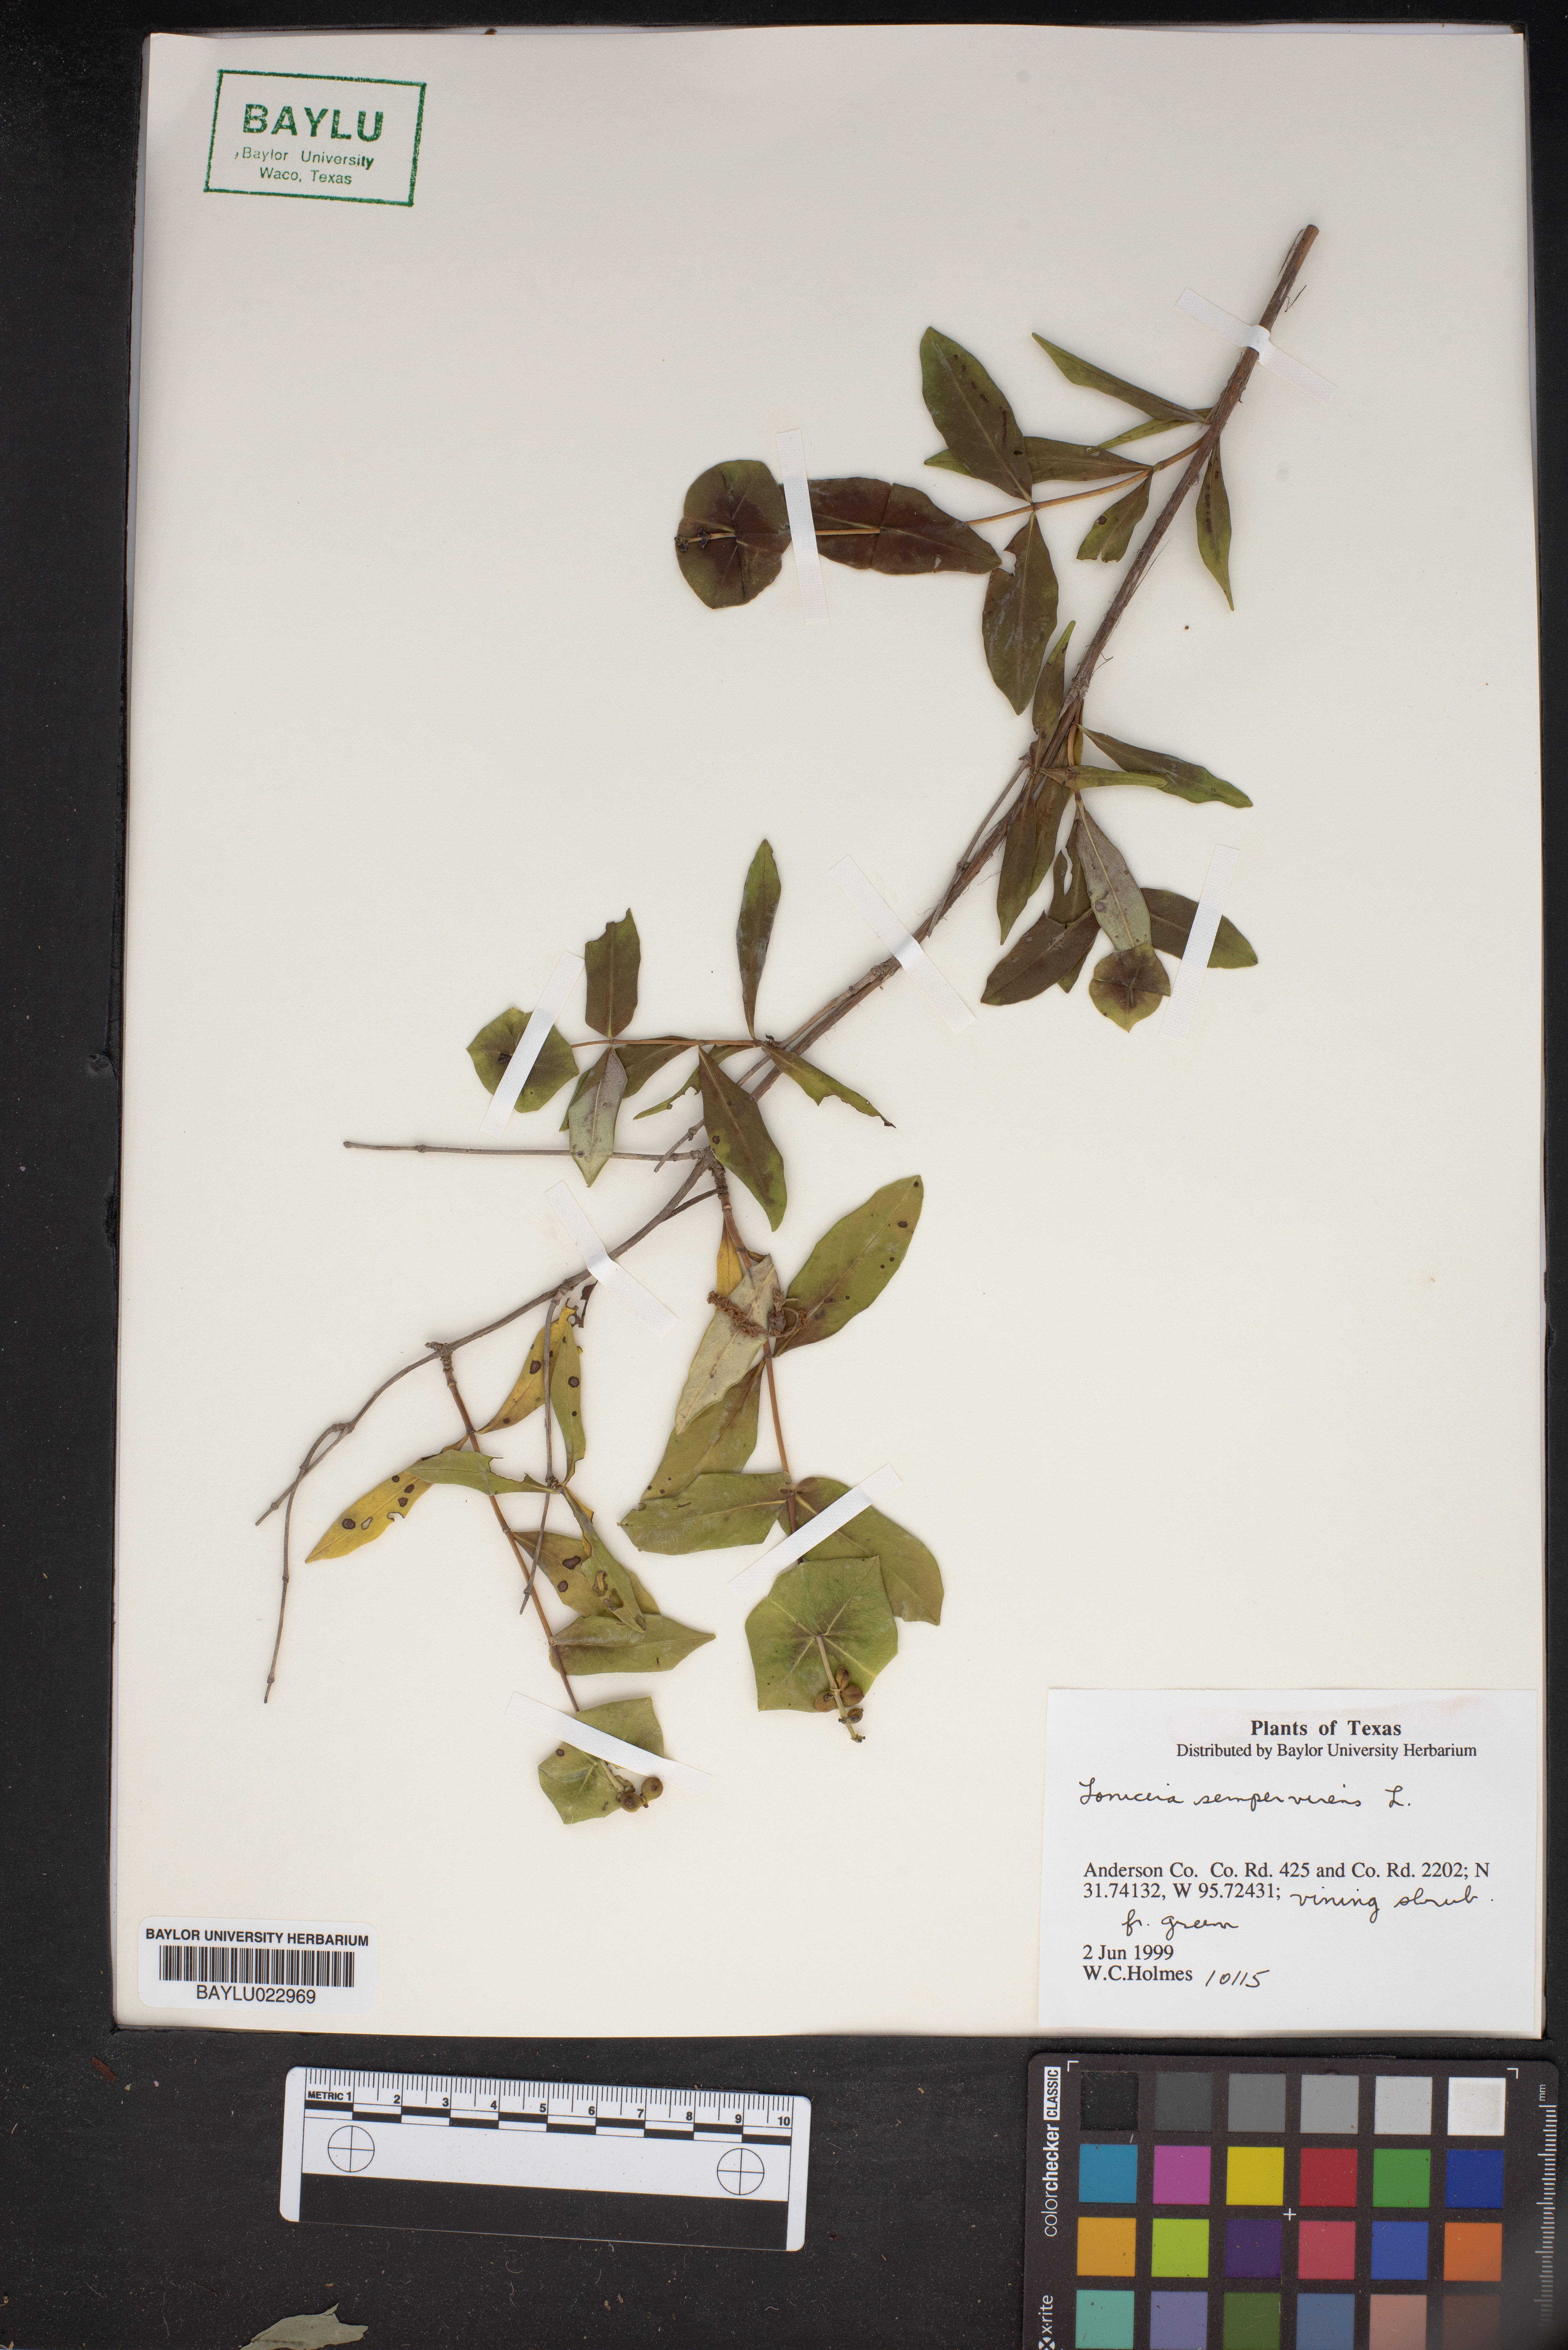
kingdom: Plantae
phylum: Tracheophyta
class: Magnoliopsida
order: Dipsacales
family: Caprifoliaceae
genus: Lonicera
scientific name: Lonicera sempervirens
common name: Coral honeysuckle
